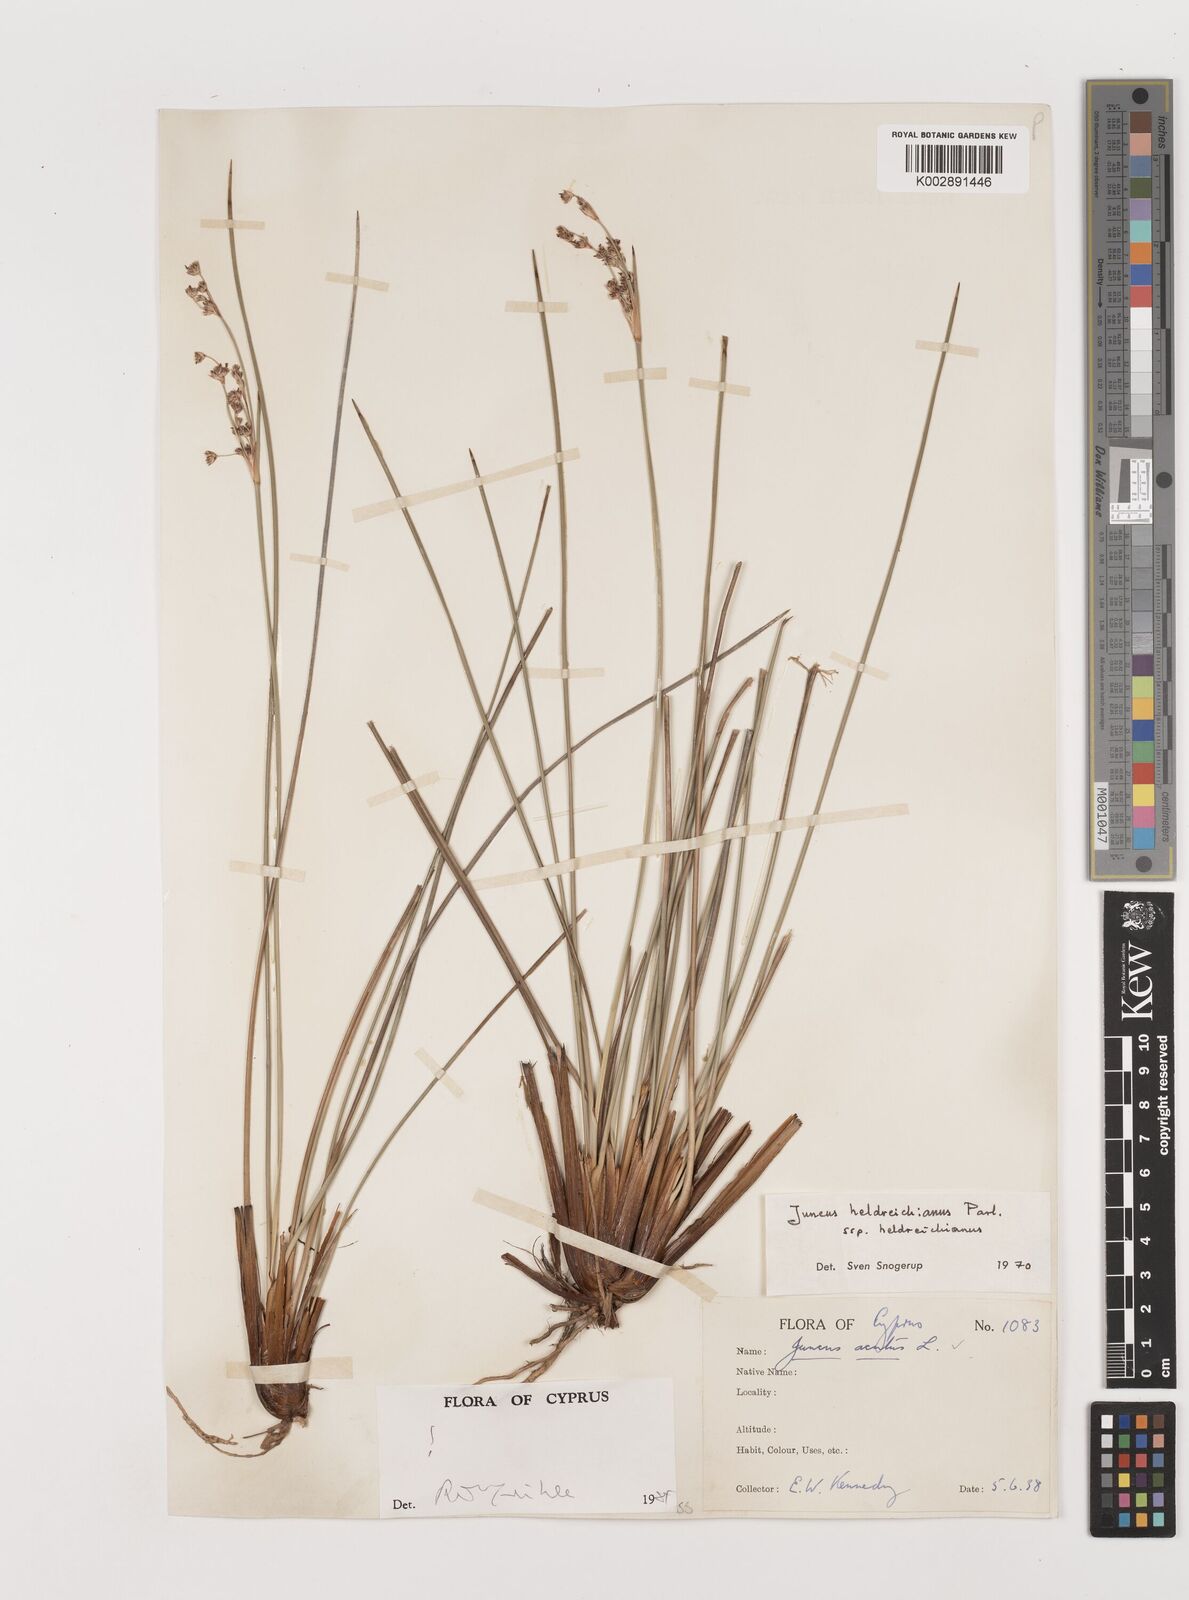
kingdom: Plantae
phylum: Tracheophyta
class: Liliopsida
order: Poales
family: Juncaceae
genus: Juncus
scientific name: Juncus heldreichianus
